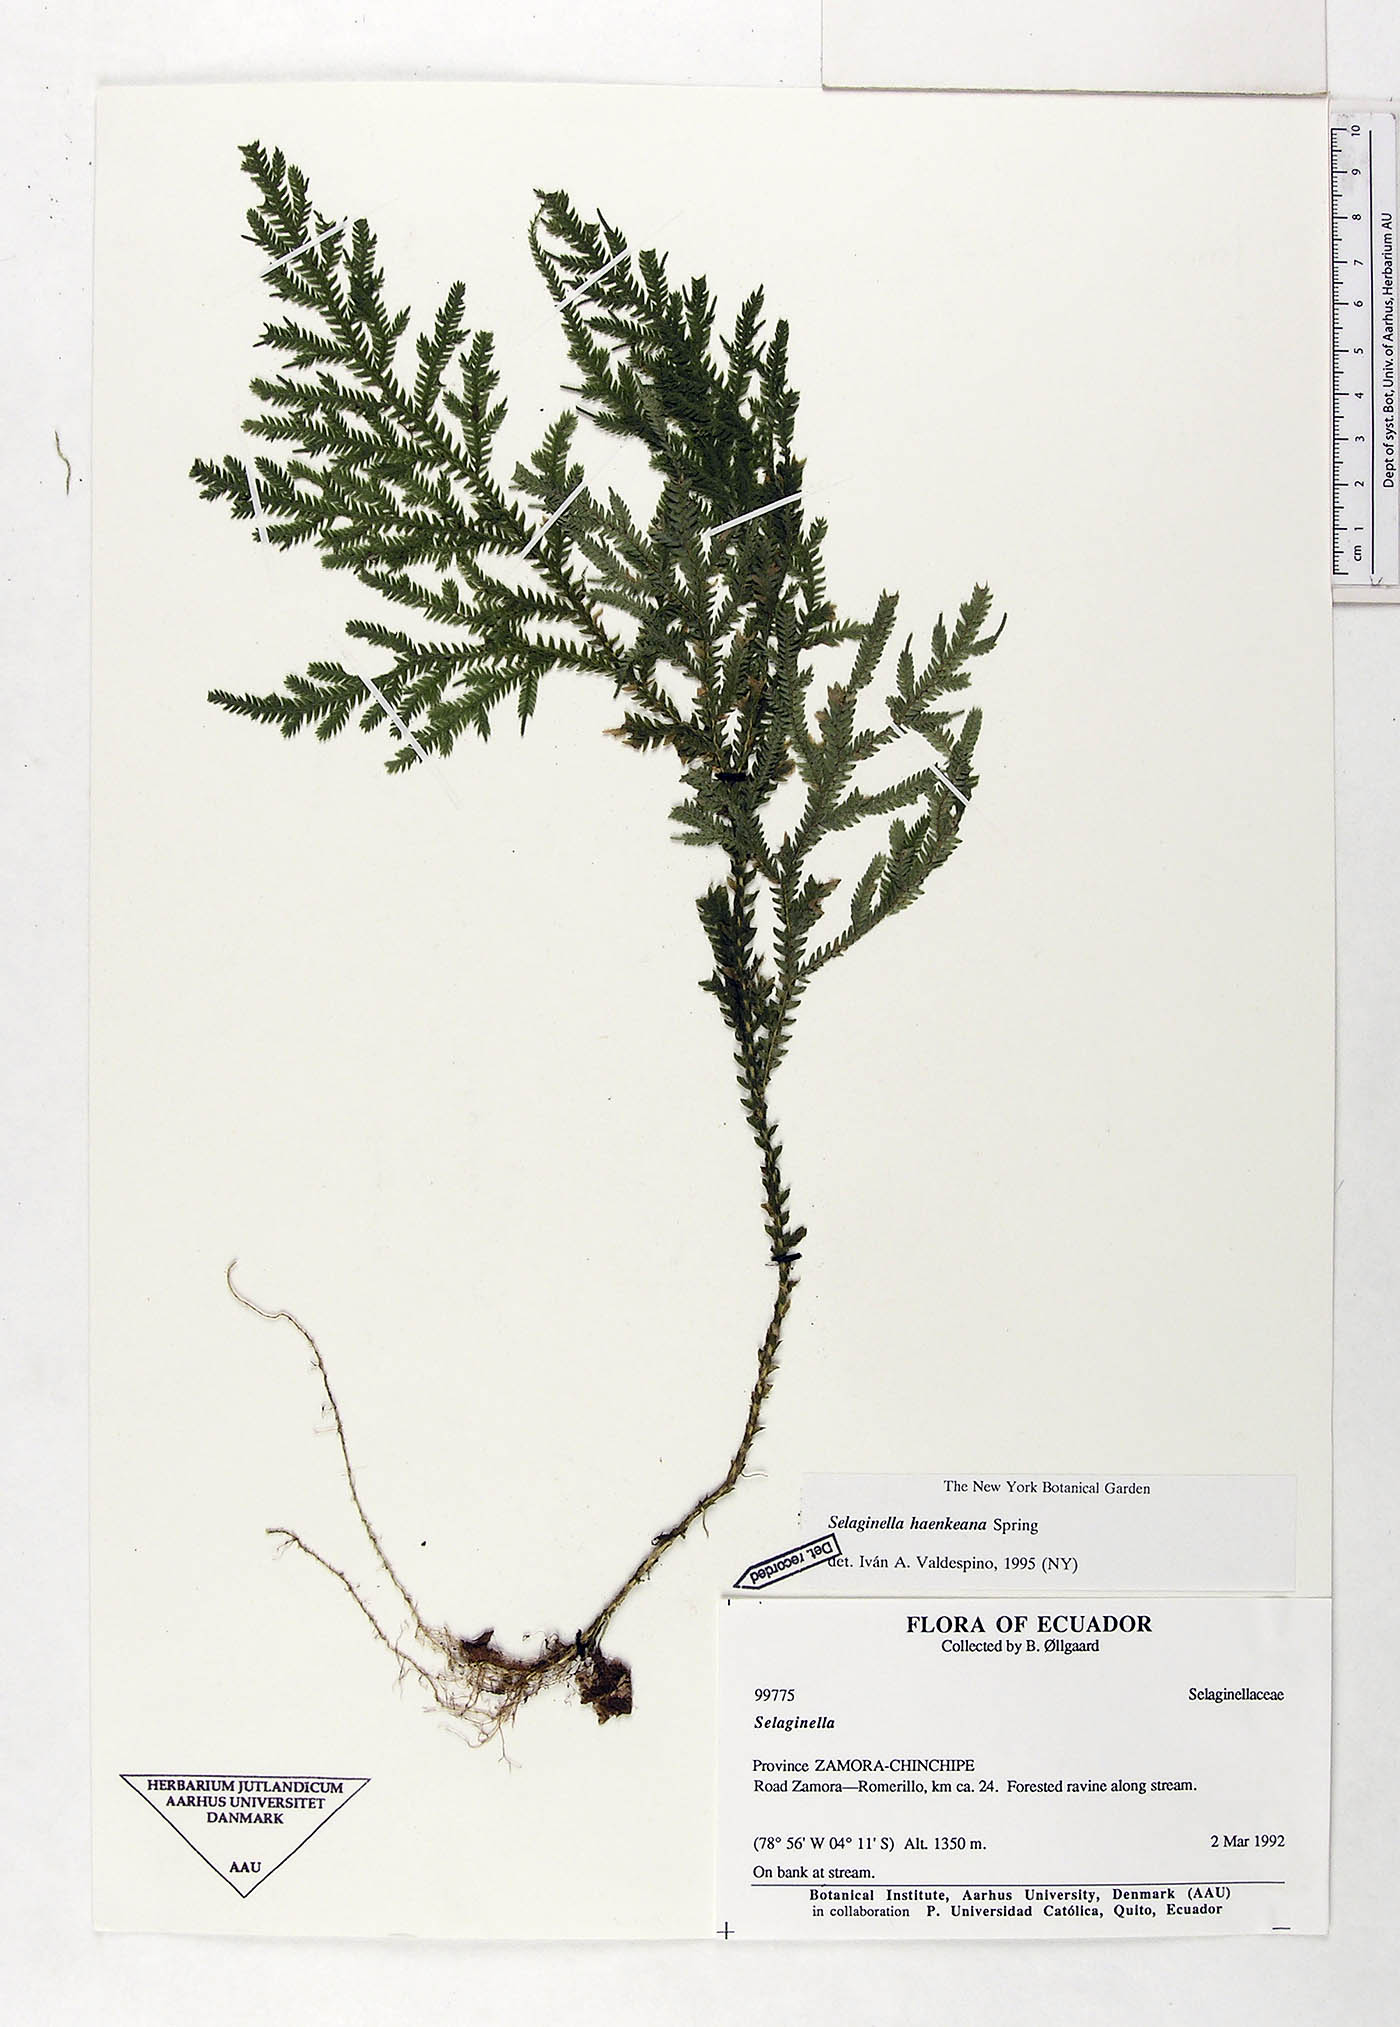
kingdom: Plantae
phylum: Tracheophyta
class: Lycopodiopsida
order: Selaginellales
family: Selaginellaceae
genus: Selaginella
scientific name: Selaginella haenkeana
